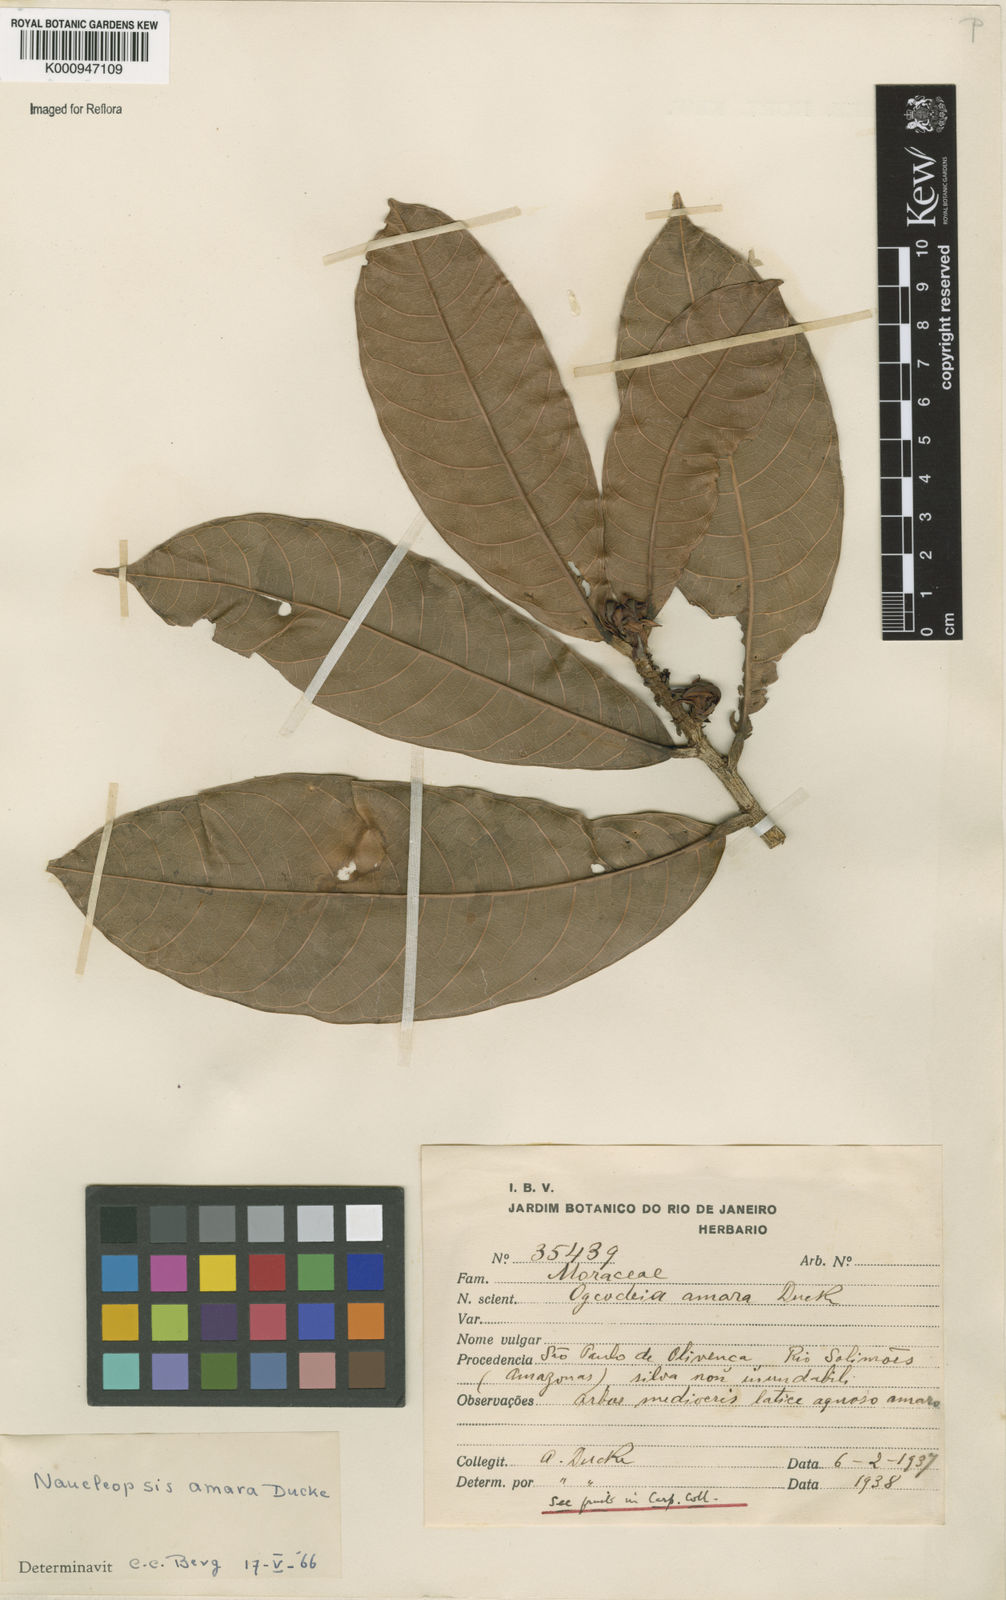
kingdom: Plantae
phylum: Tracheophyta
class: Magnoliopsida
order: Rosales
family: Moraceae
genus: Naucleopsis
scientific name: Naucleopsis ulei
